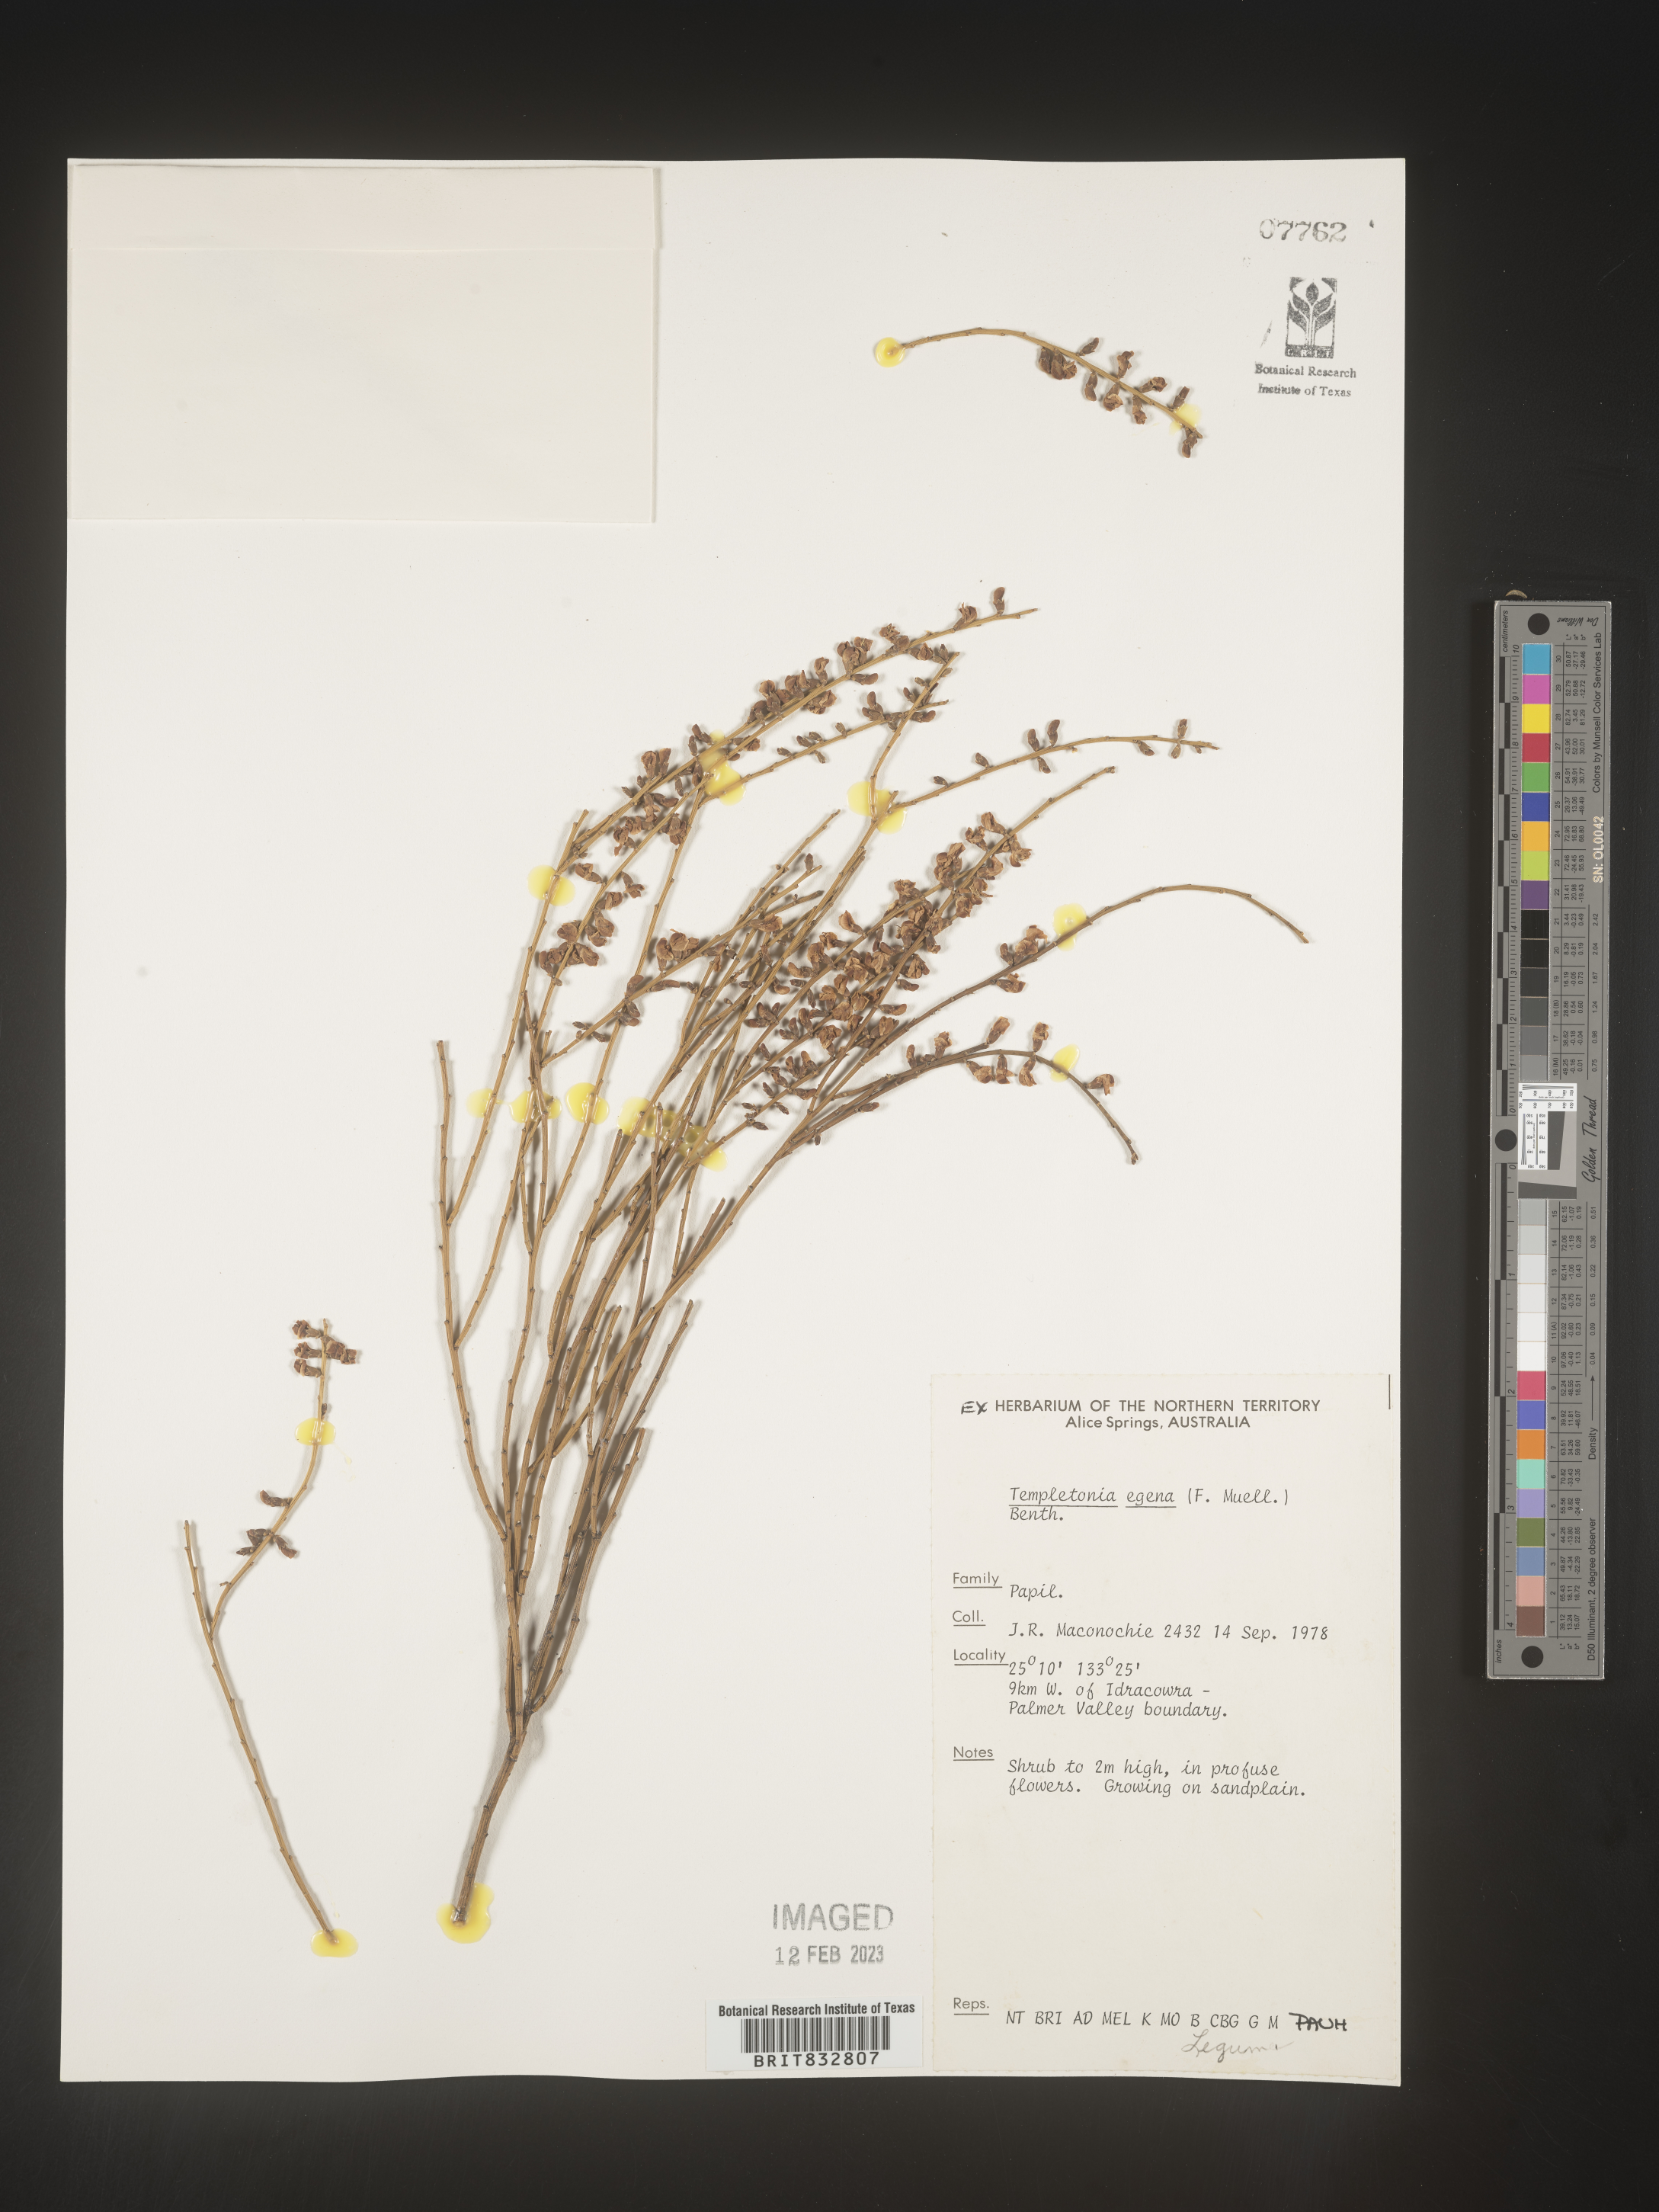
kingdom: Plantae
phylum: Tracheophyta
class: Magnoliopsida
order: Fabales
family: Fabaceae
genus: Templetonia
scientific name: Templetonia
